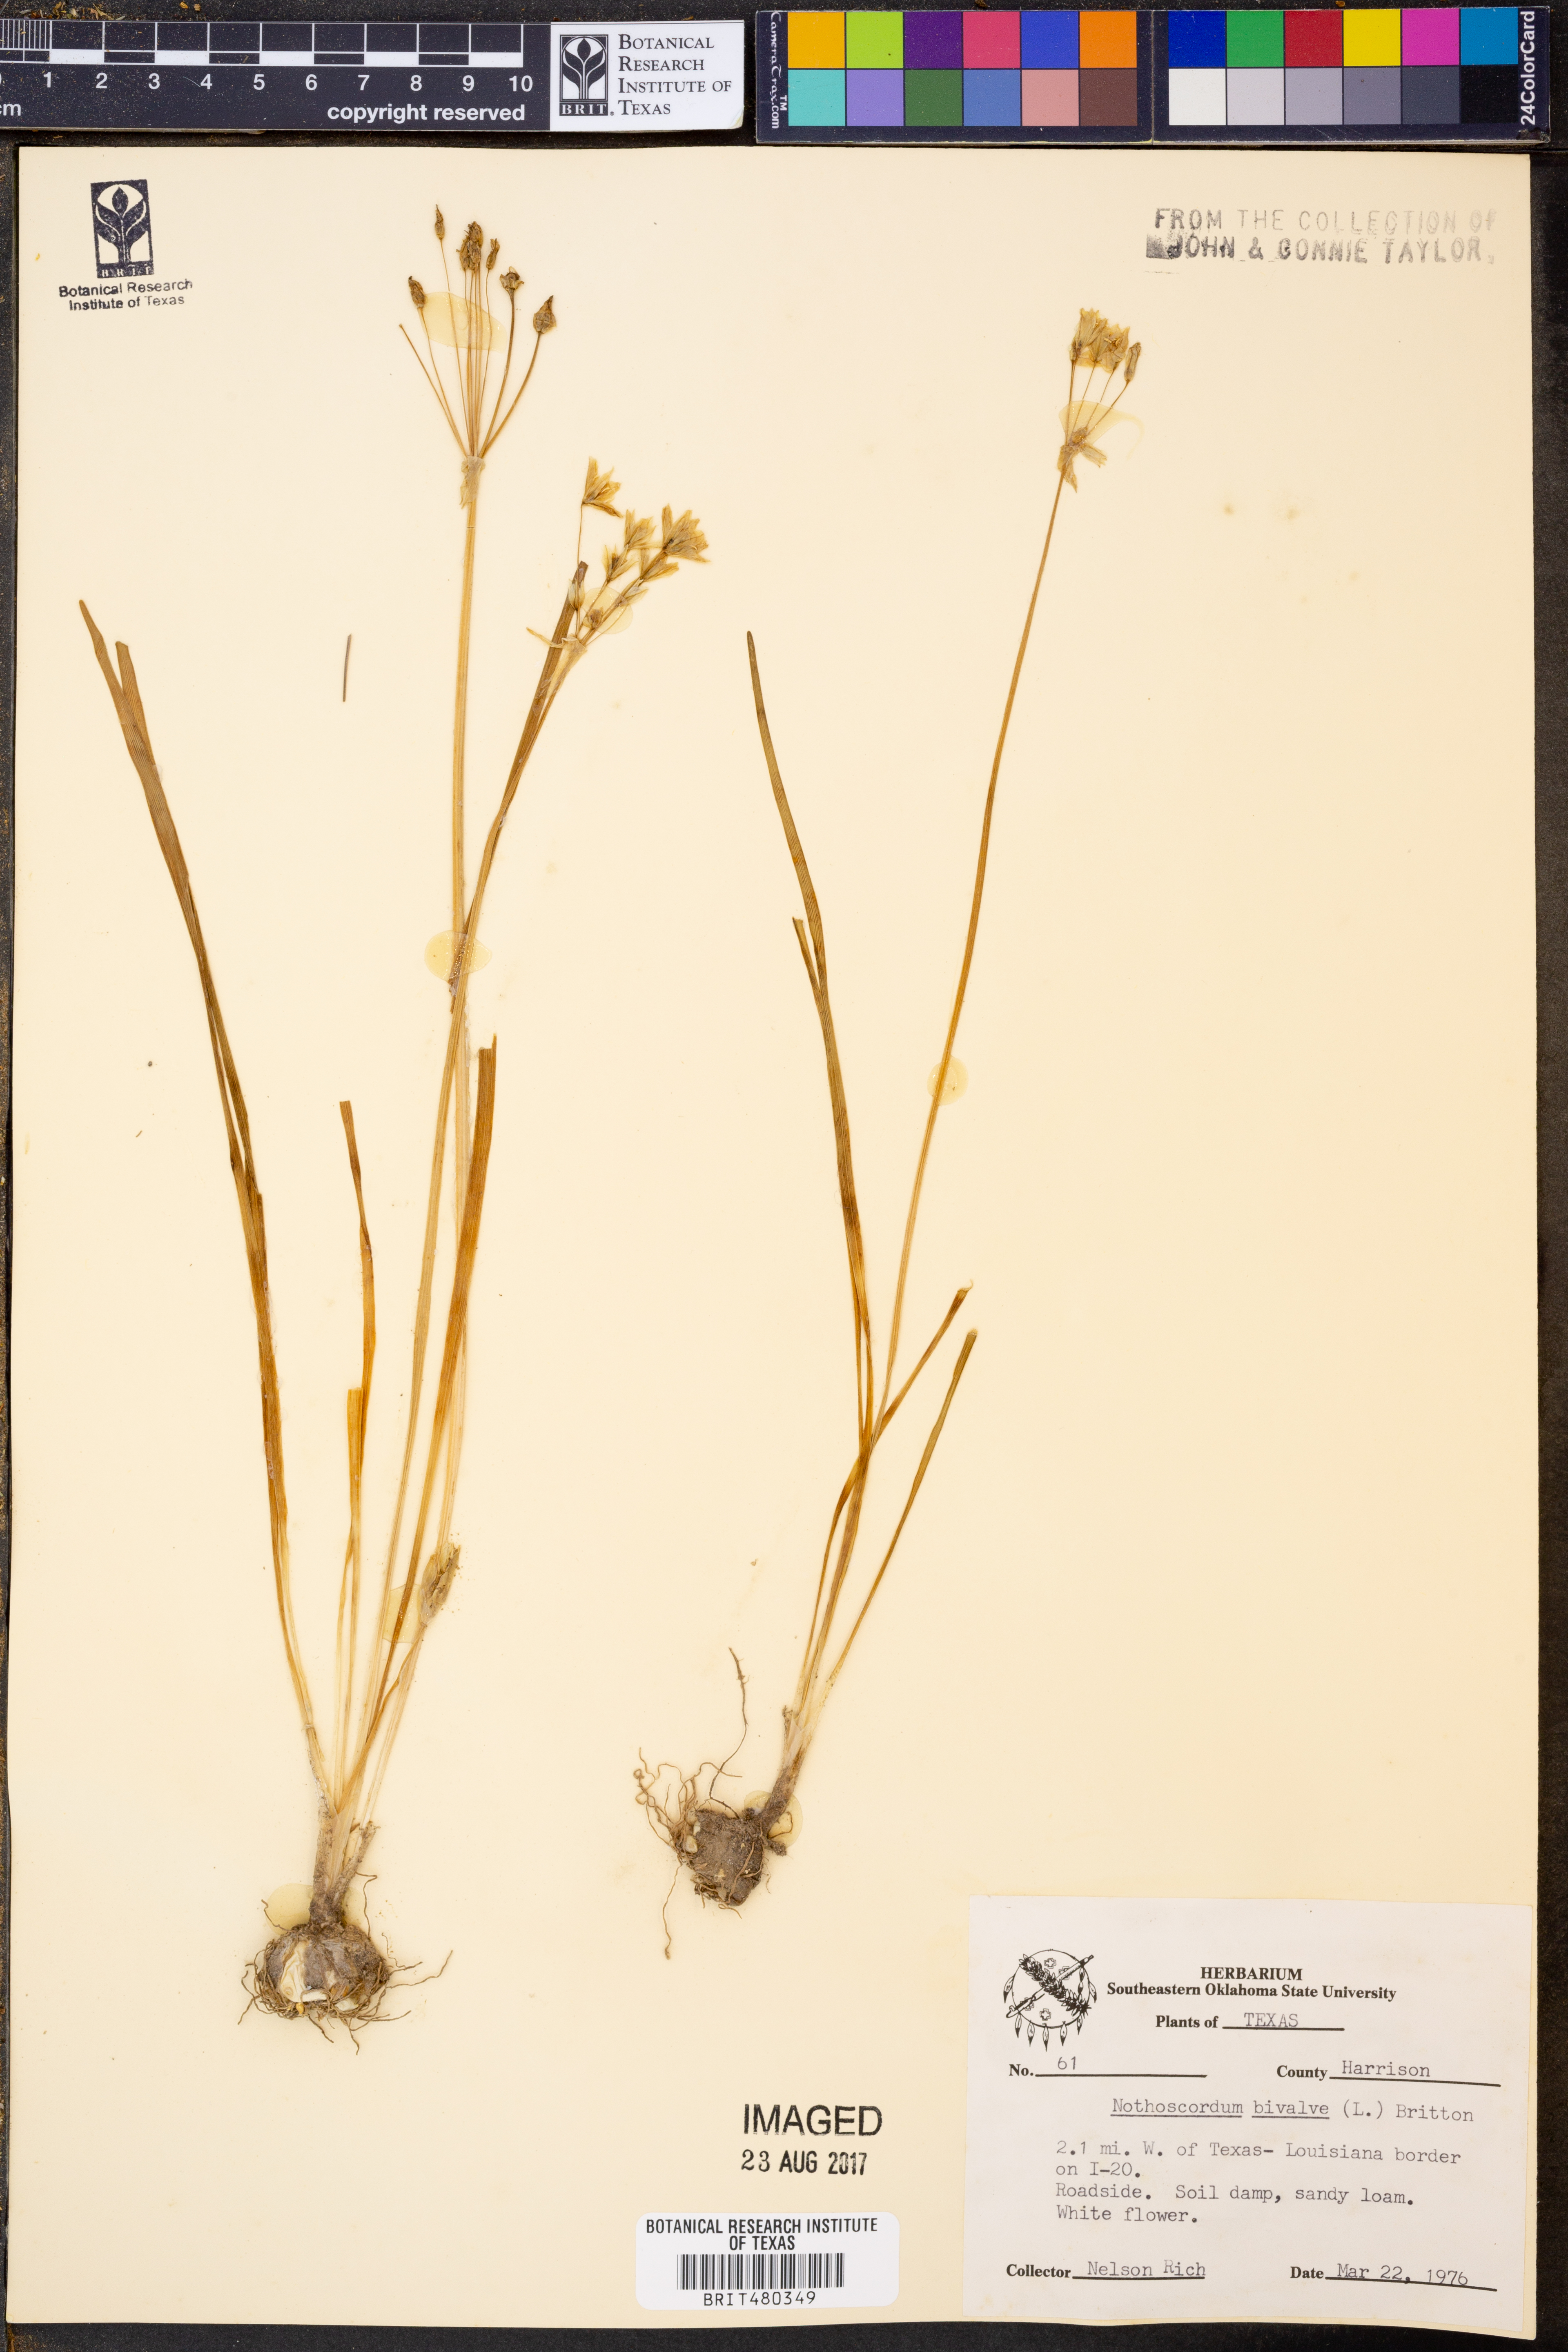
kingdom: Plantae
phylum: Tracheophyta
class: Liliopsida
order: Asparagales
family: Amaryllidaceae
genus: Nothoscordum
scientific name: Nothoscordum bivalve
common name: Crow-poison
